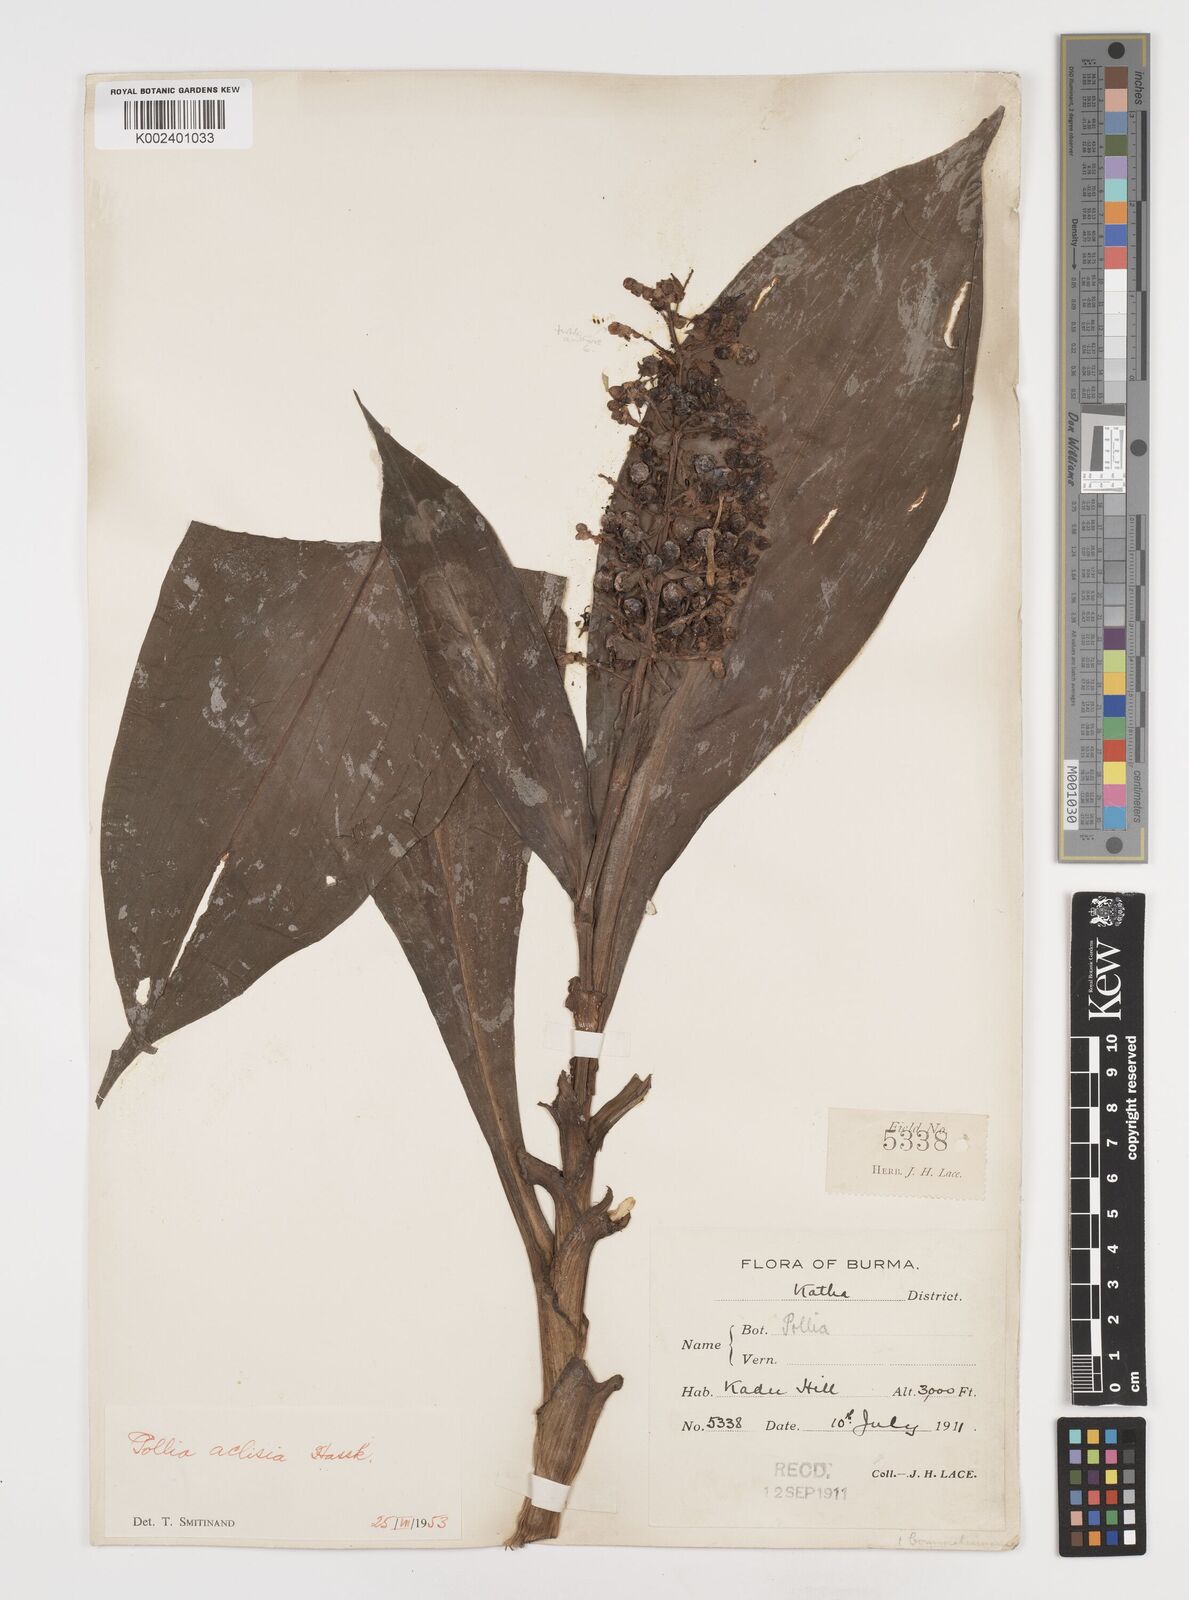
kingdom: Plantae
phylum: Tracheophyta
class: Liliopsida
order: Commelinales
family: Commelinaceae
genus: Pollia
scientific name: Pollia hasskarlii
